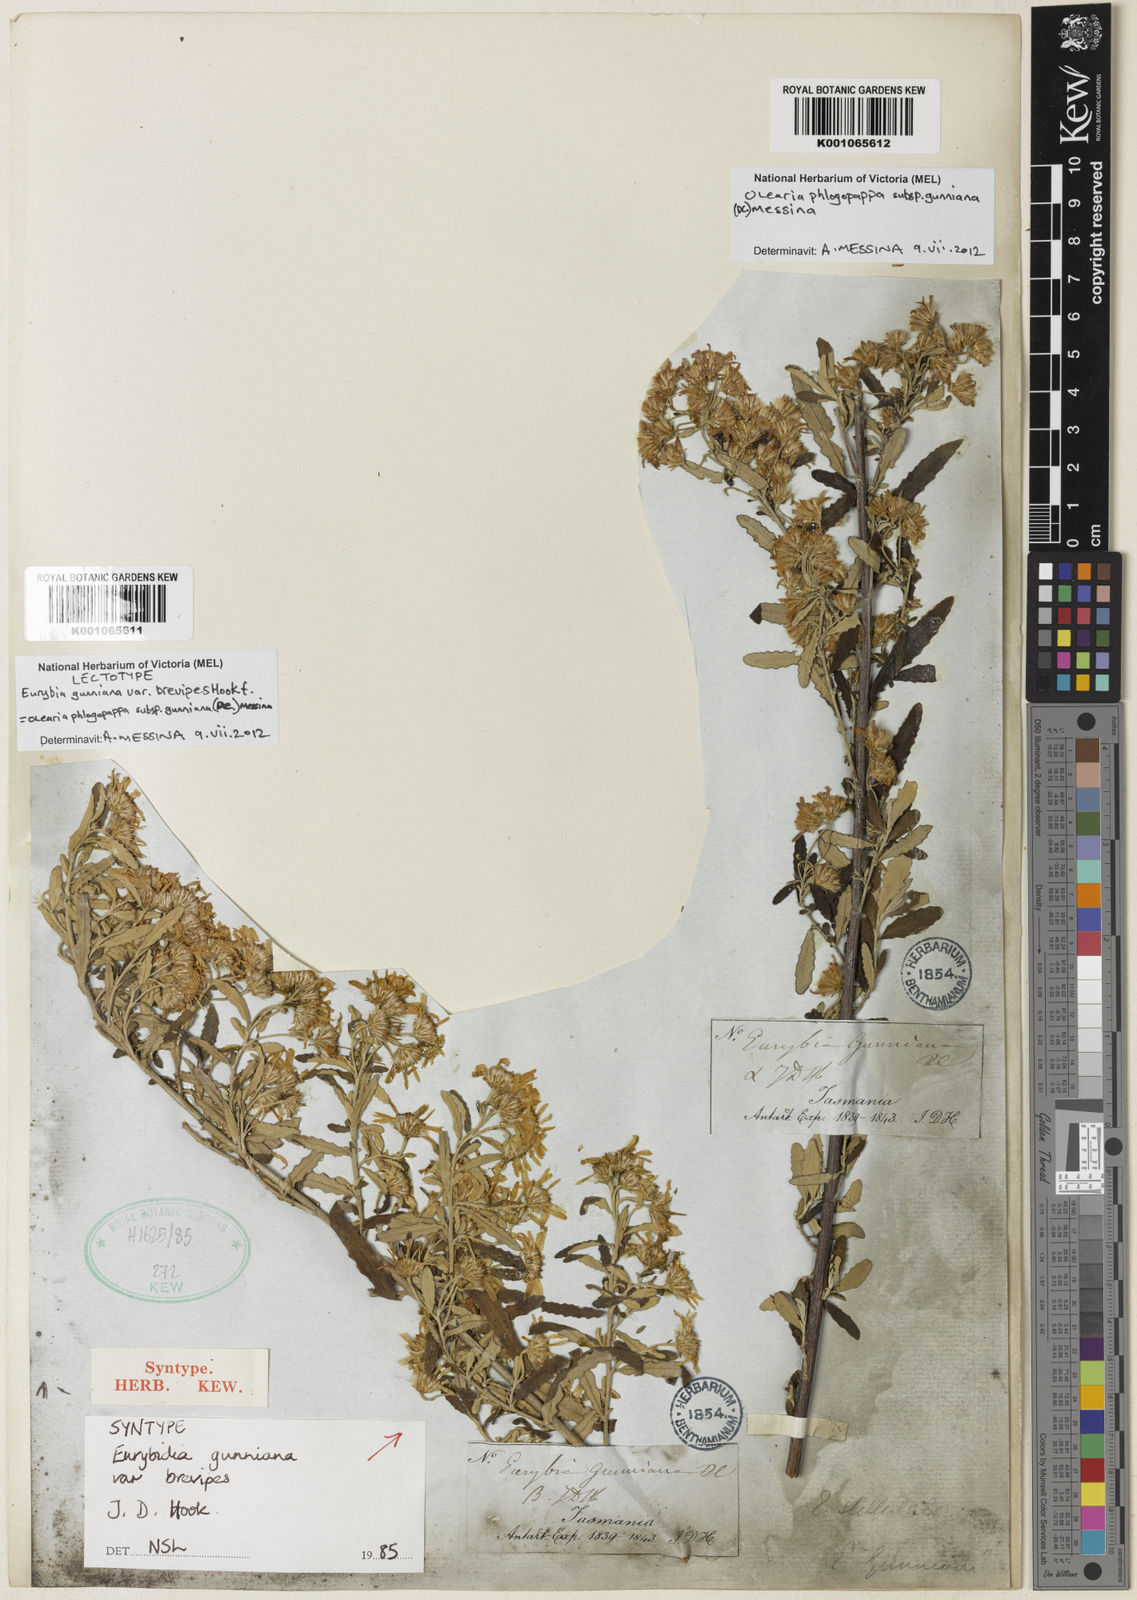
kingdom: Plantae
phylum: Tracheophyta
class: Magnoliopsida
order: Asterales
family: Asteraceae
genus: Olearia
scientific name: Olearia phlogopappa
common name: Alpine daisybush
